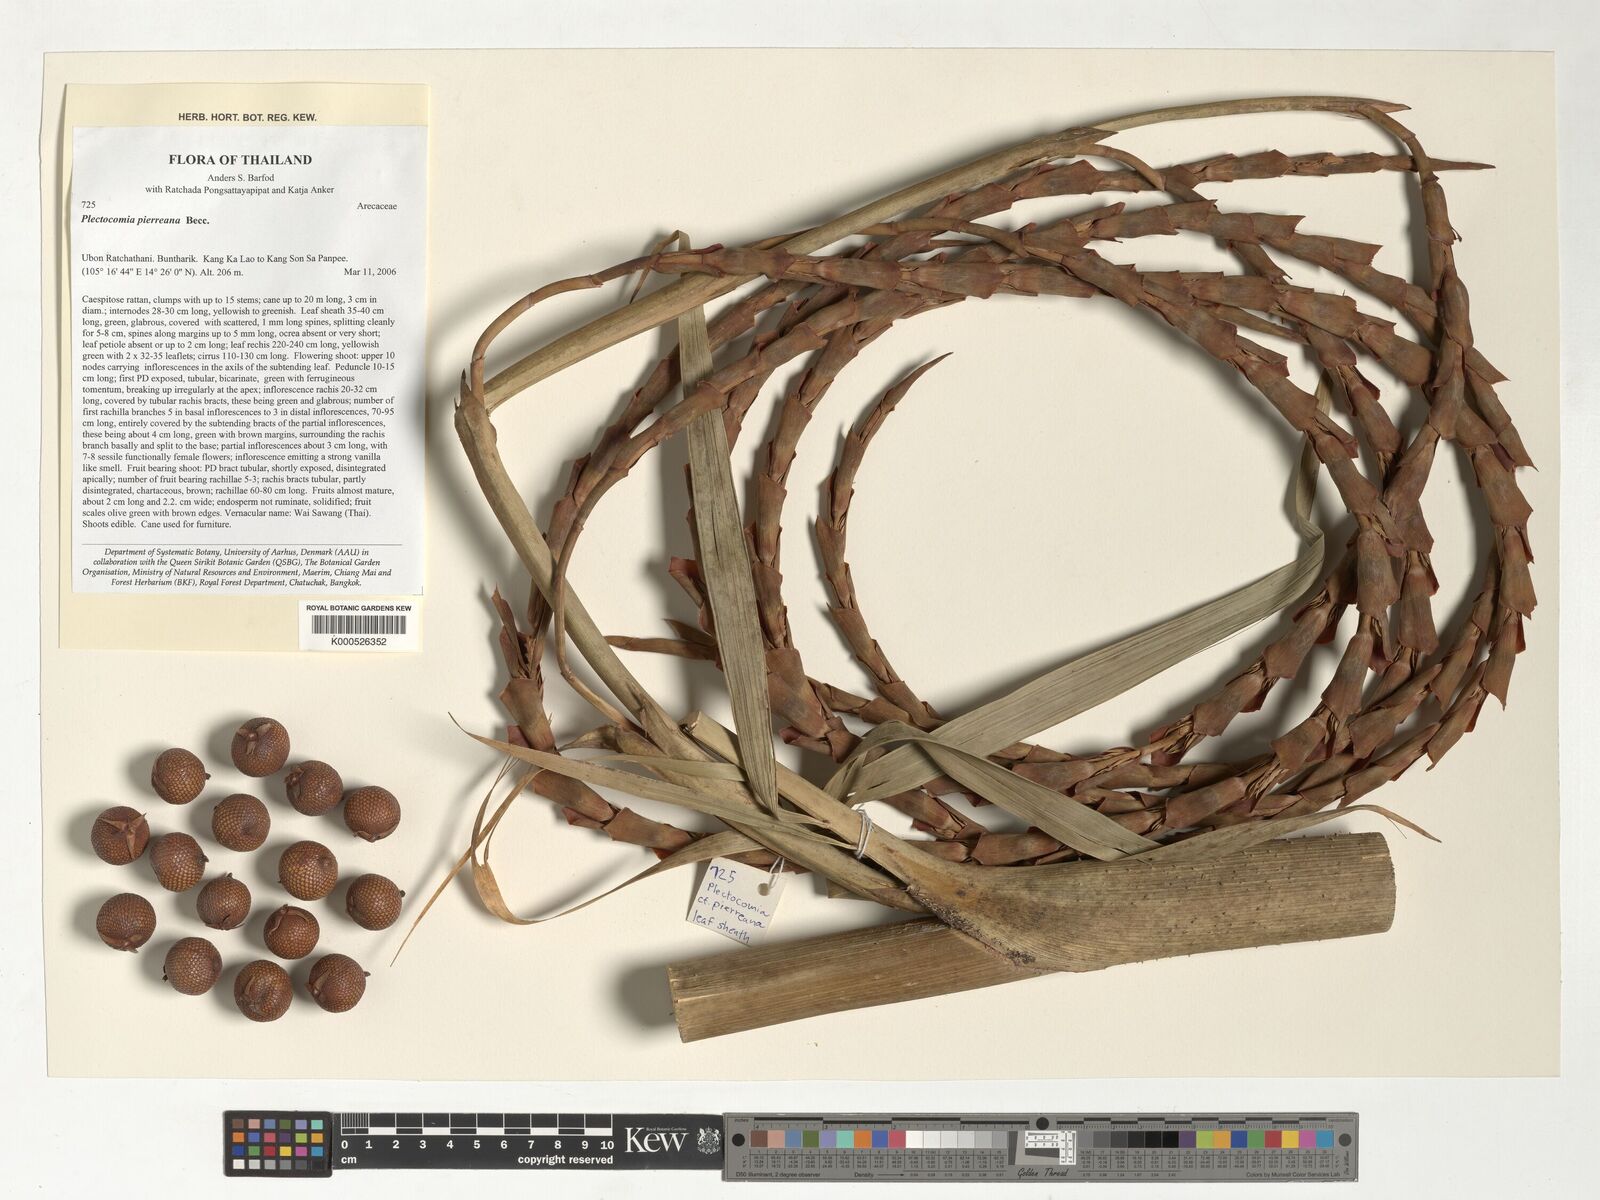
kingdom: Plantae
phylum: Tracheophyta
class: Liliopsida
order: Arecales
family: Arecaceae
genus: Plectocomia
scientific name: Plectocomia pierreana
